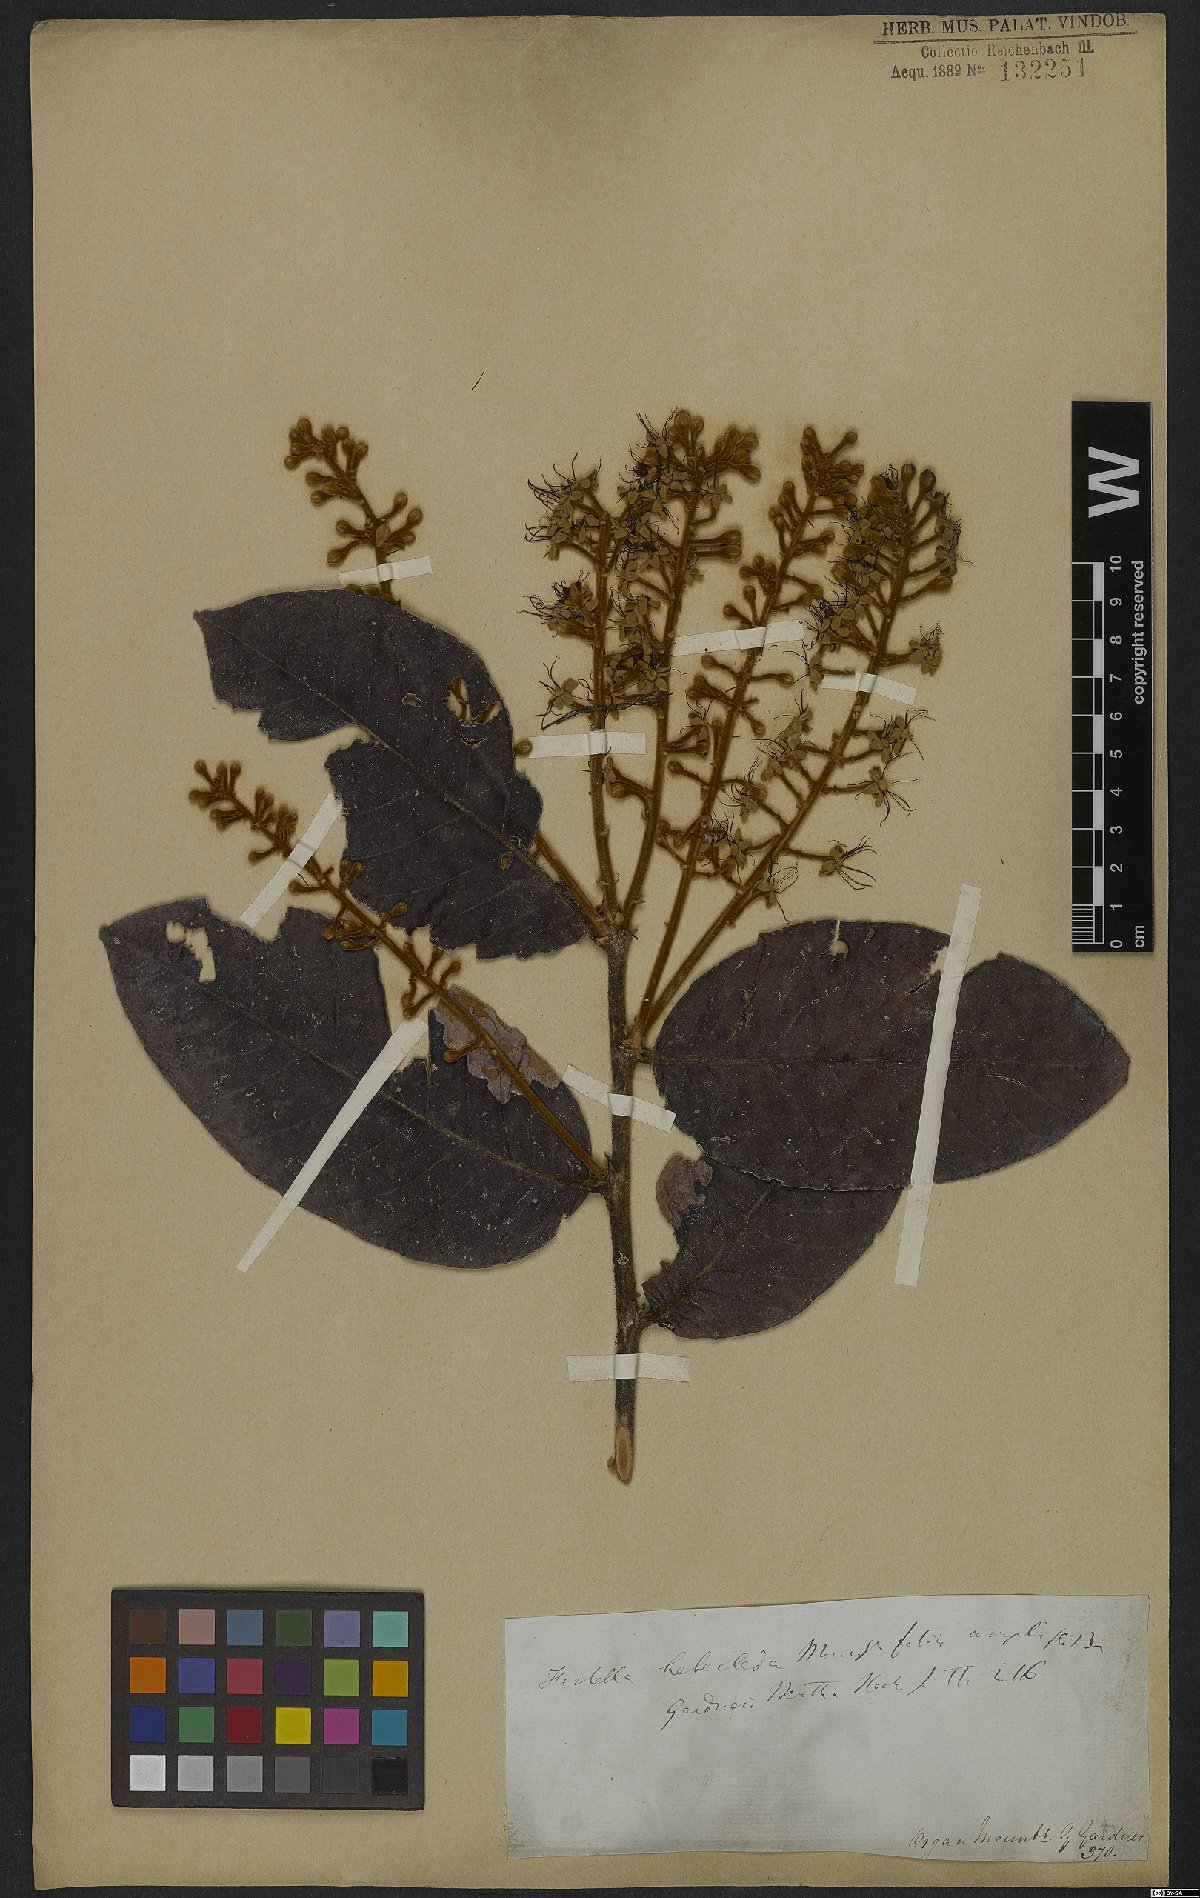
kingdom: Plantae
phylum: Tracheophyta
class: Magnoliopsida
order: Malpighiales
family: Chrysobalanaceae
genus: Hirtella
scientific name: Hirtella hebeclada
